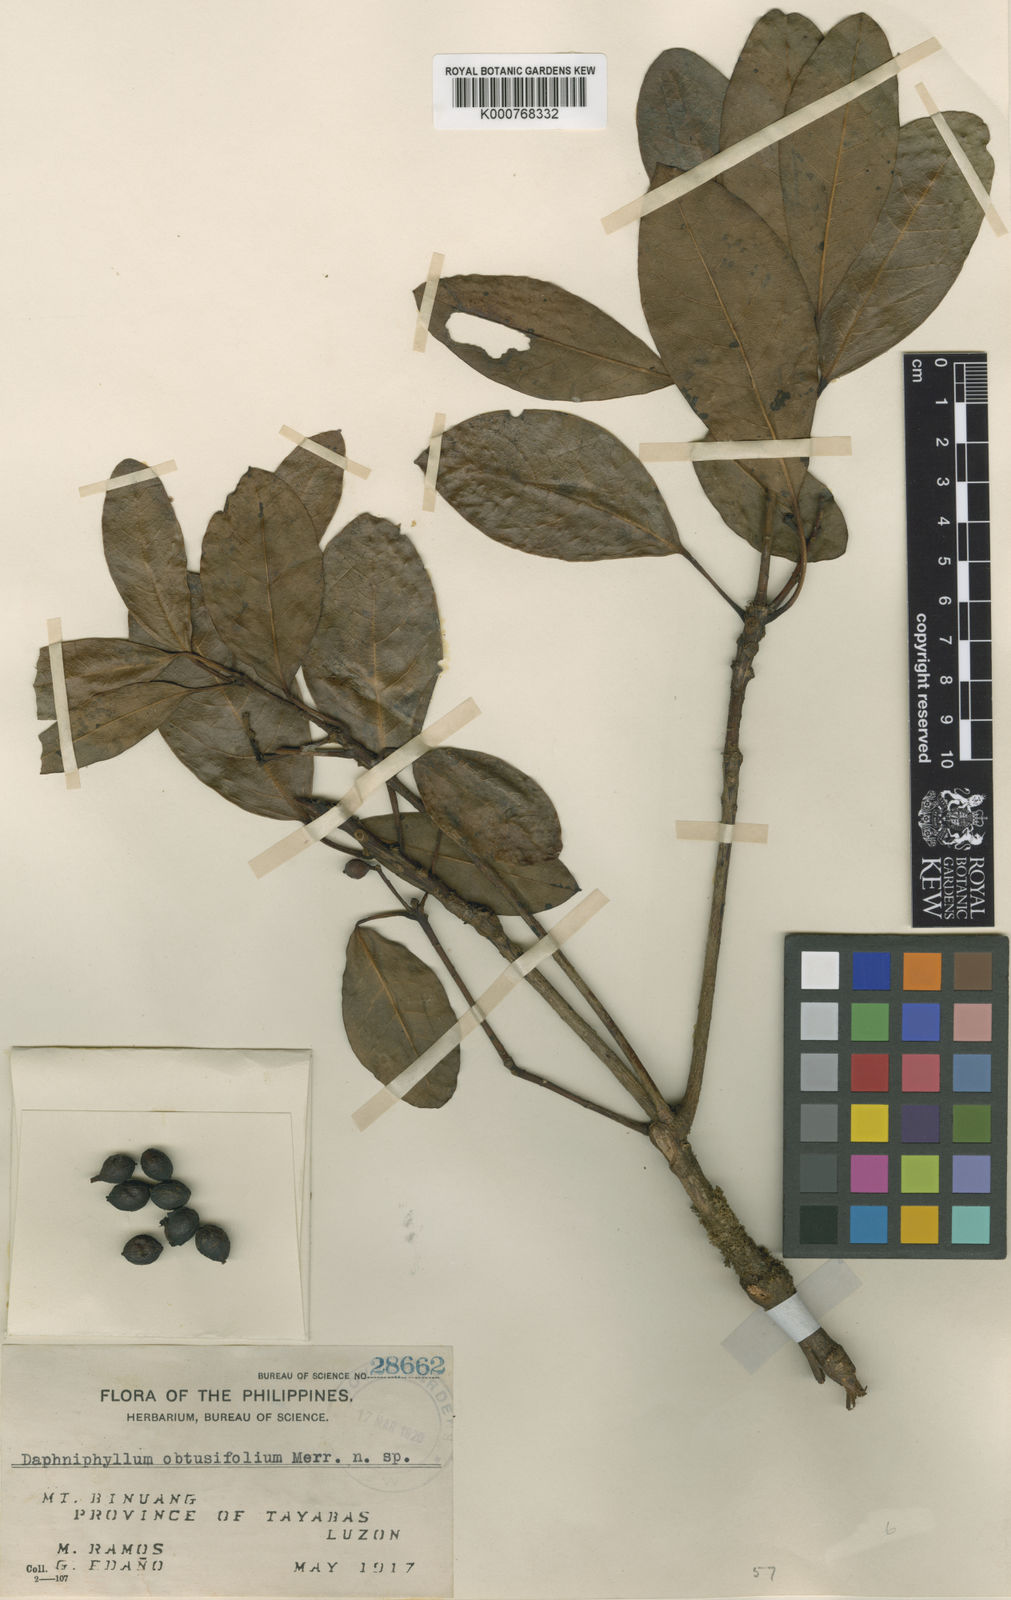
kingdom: Plantae
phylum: Tracheophyta
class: Magnoliopsida
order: Saxifragales
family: Daphniphyllaceae
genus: Daphniphyllum
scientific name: Daphniphyllum glaucescens
